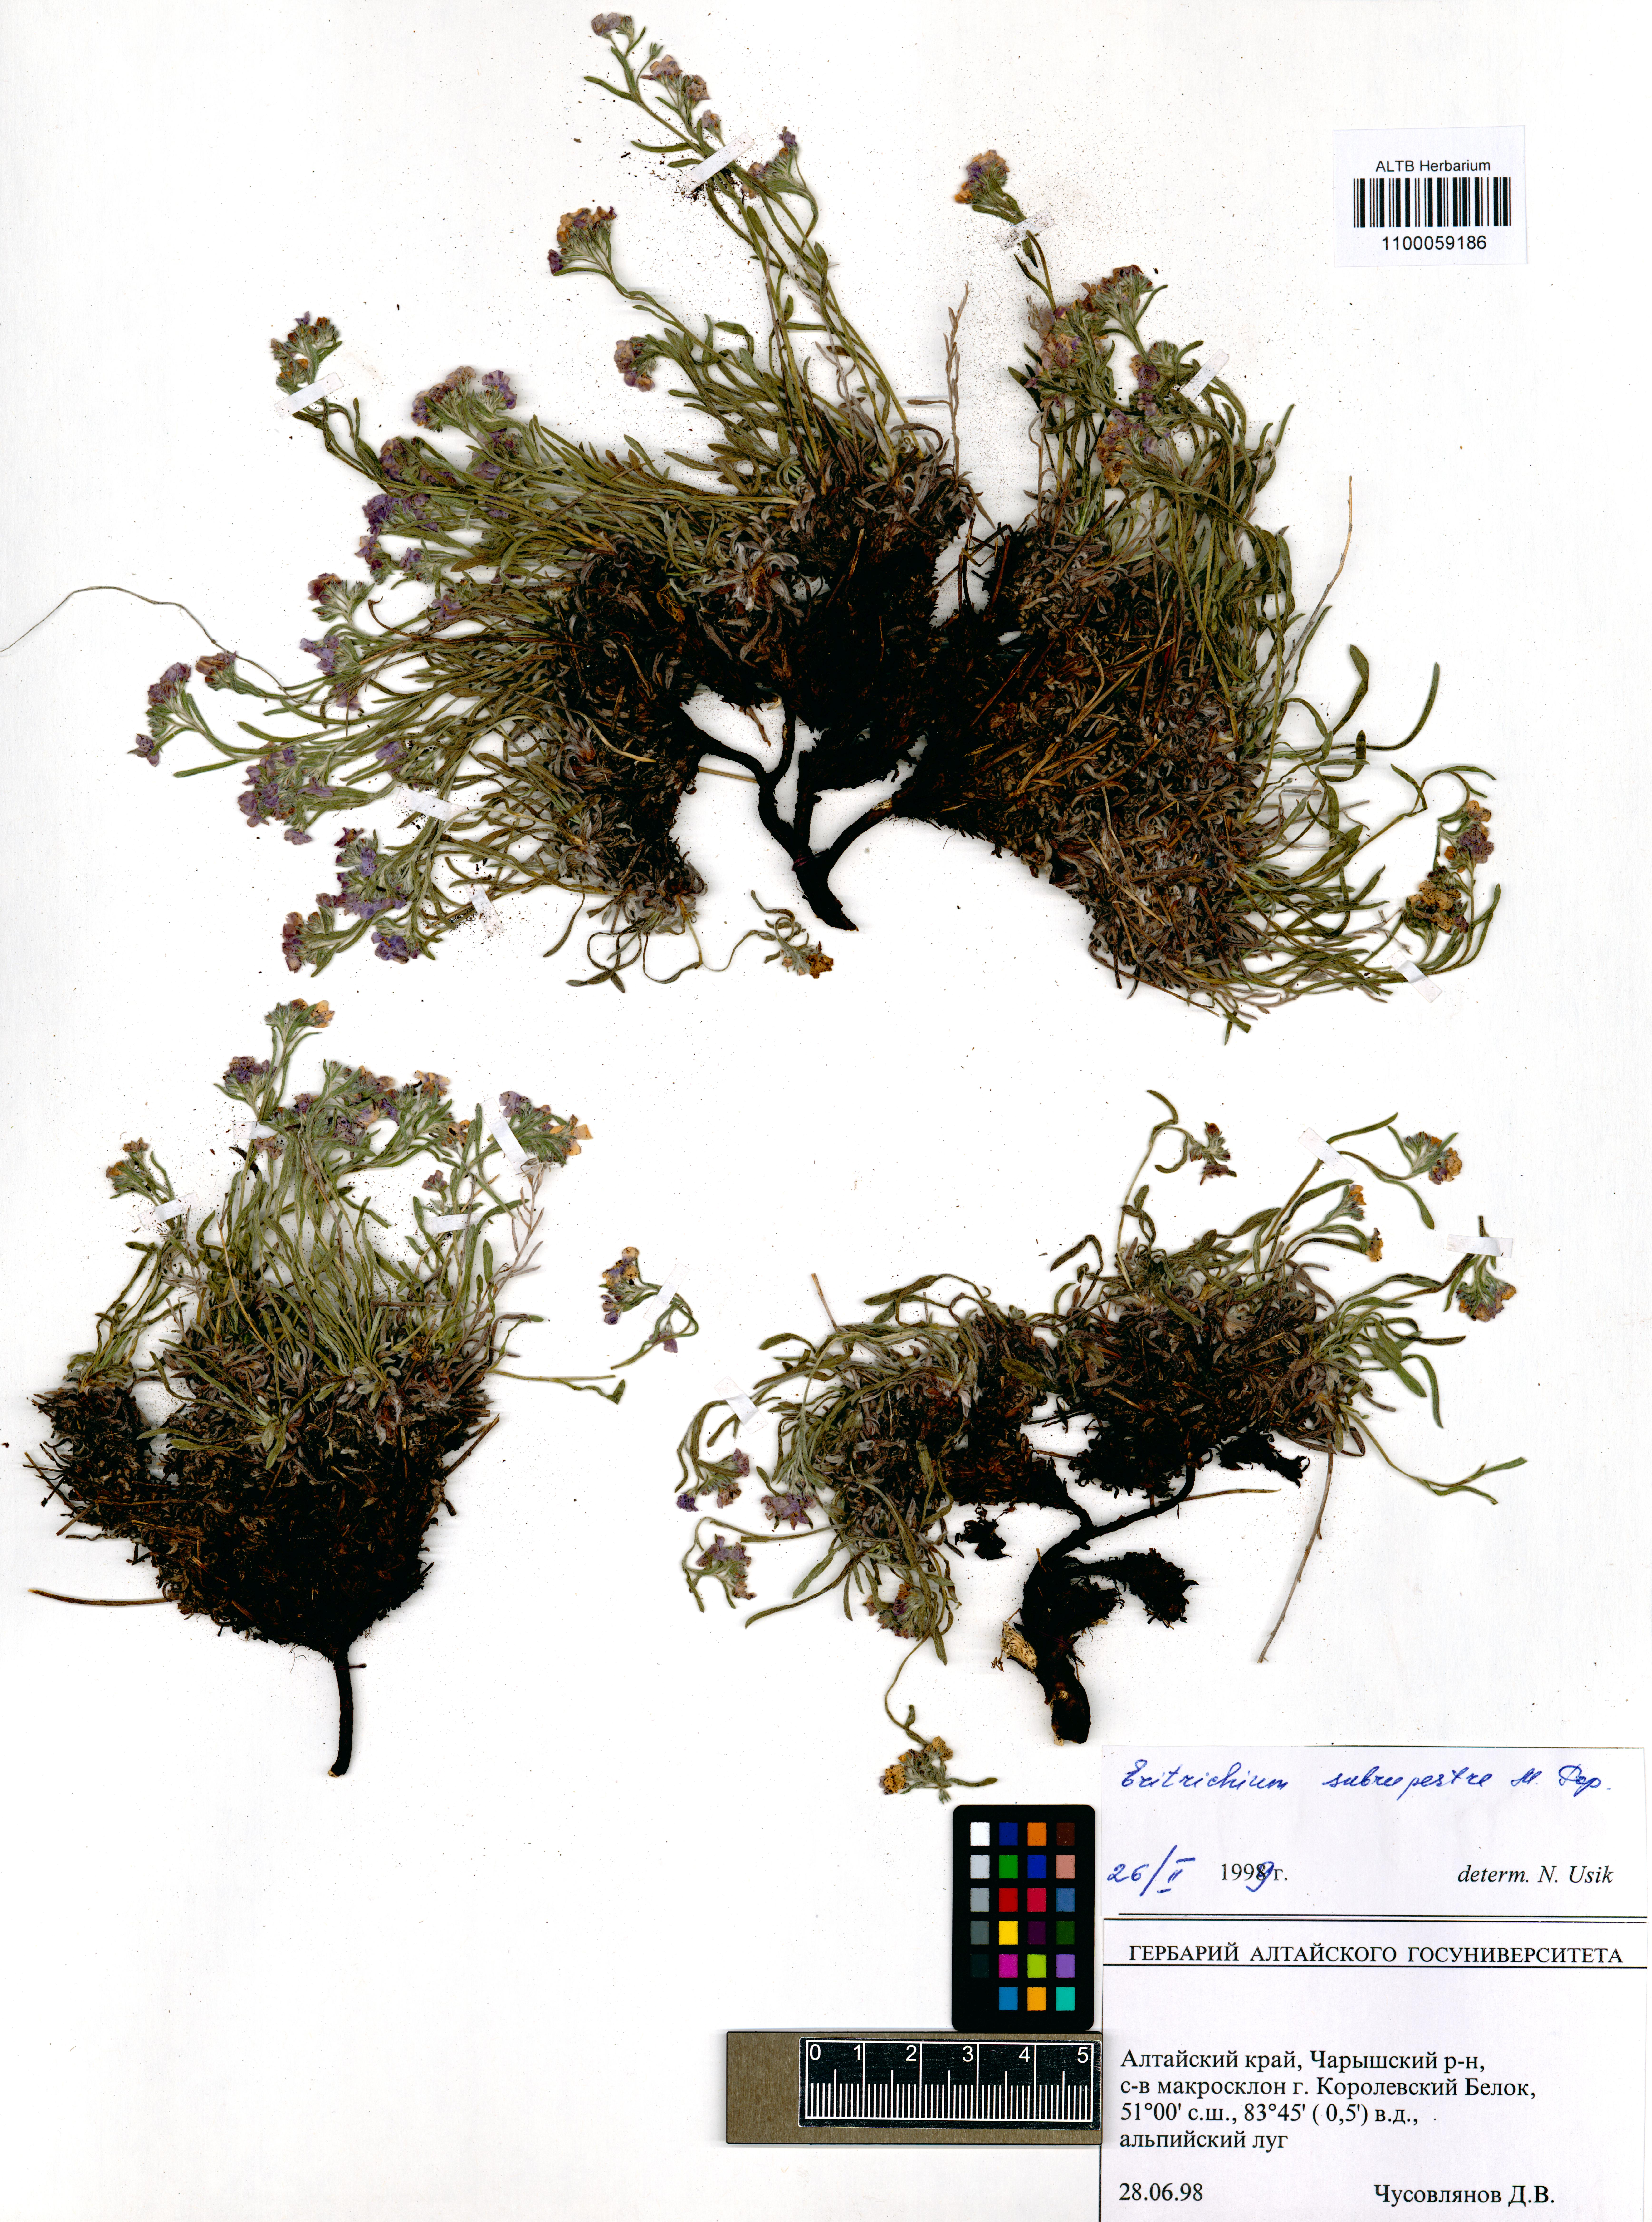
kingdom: Plantae
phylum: Tracheophyta
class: Magnoliopsida
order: Boraginales
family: Boraginaceae
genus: Eritrichium
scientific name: Eritrichium pauciflorum
